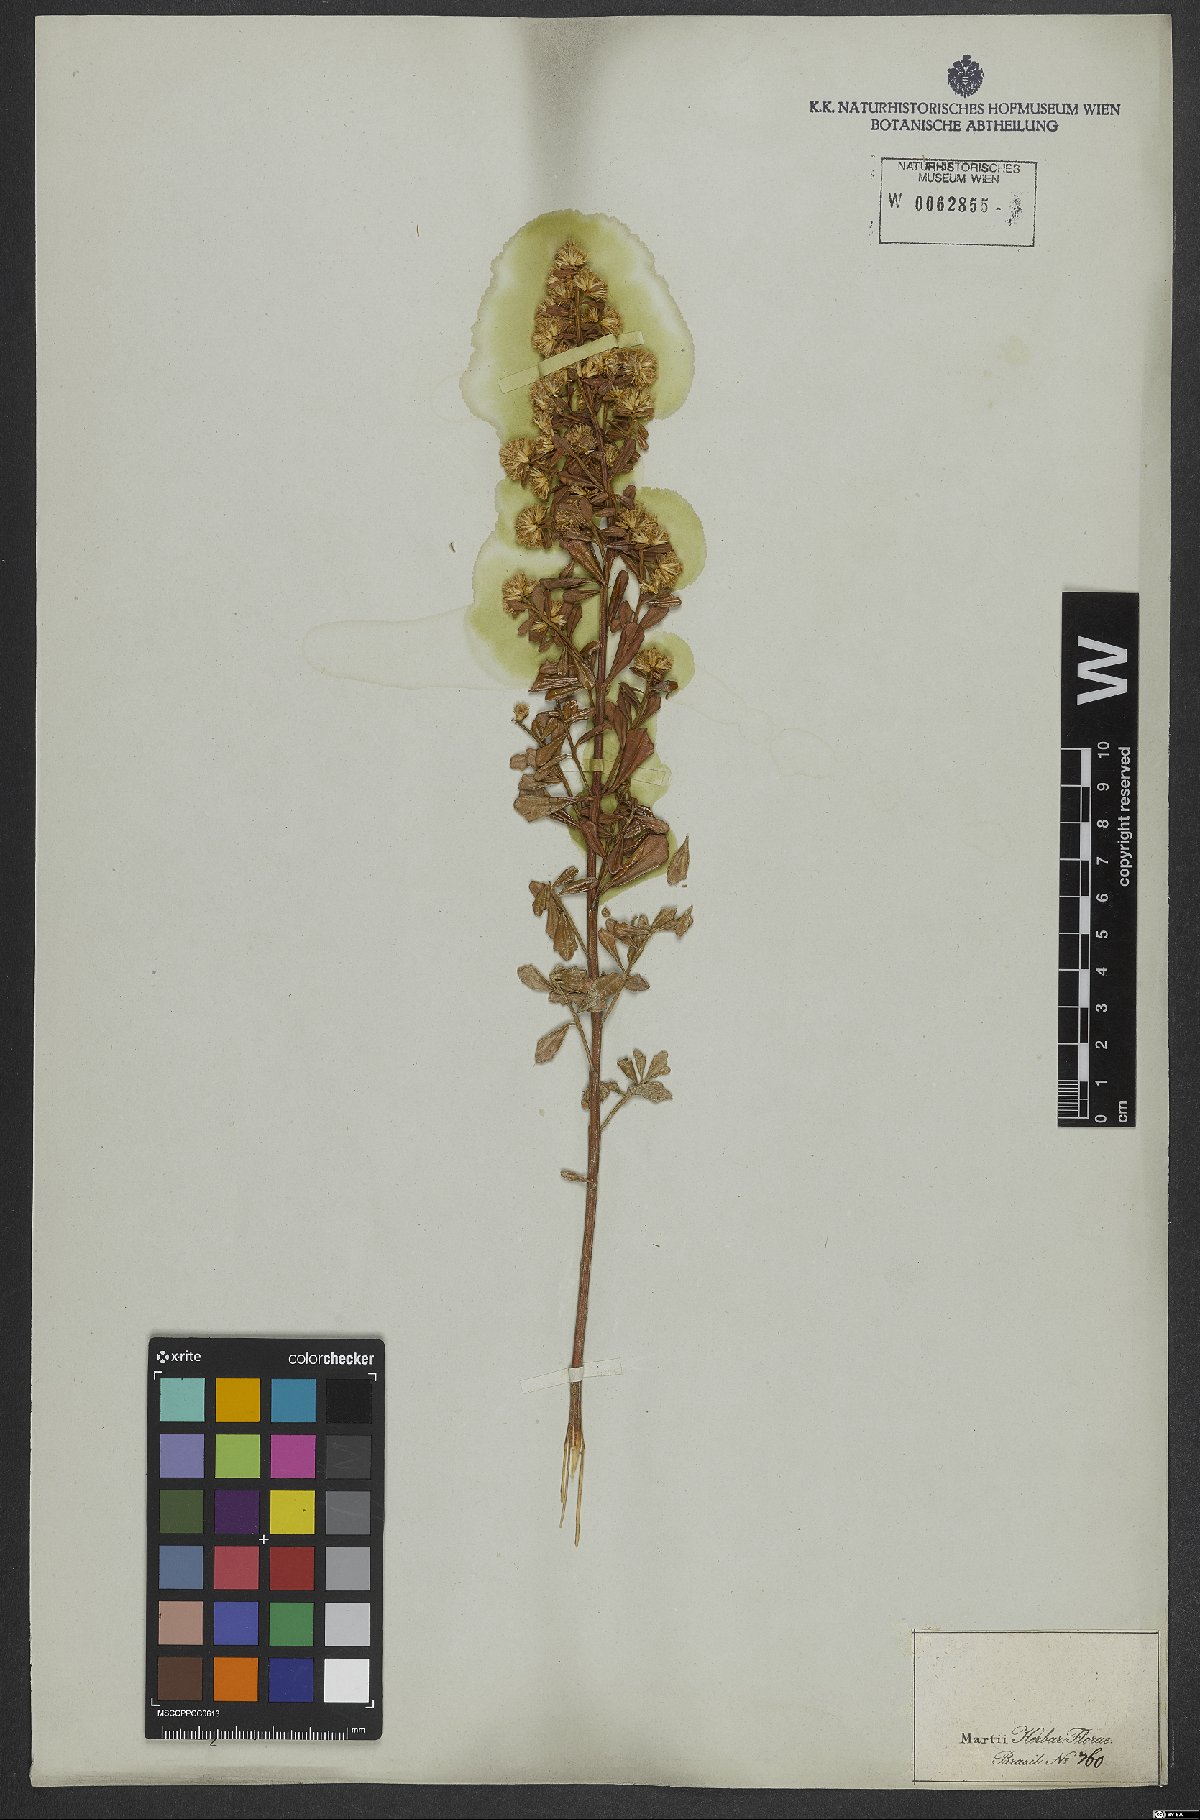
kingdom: Plantae
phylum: Tracheophyta
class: Magnoliopsida
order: Asterales
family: Asteraceae
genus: Baccharis
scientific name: Baccharis
